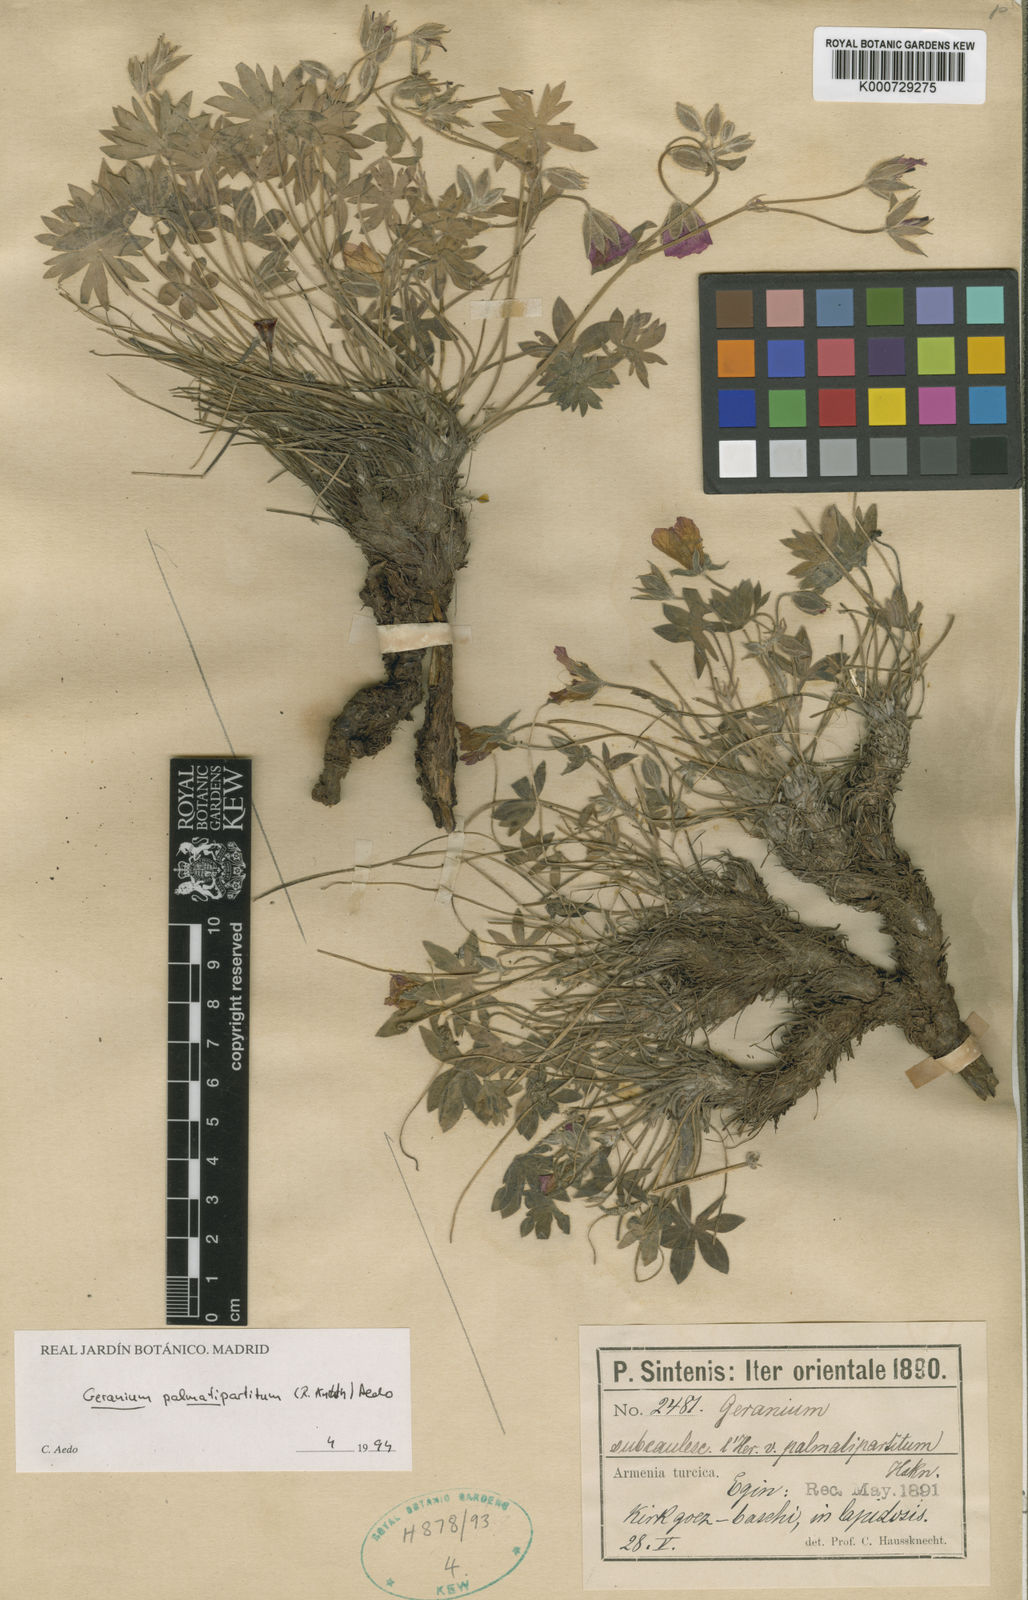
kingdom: Plantae
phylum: Tracheophyta
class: Magnoliopsida
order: Geraniales
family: Geraniaceae
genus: Geranium
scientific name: Geranium palmatipartitum
